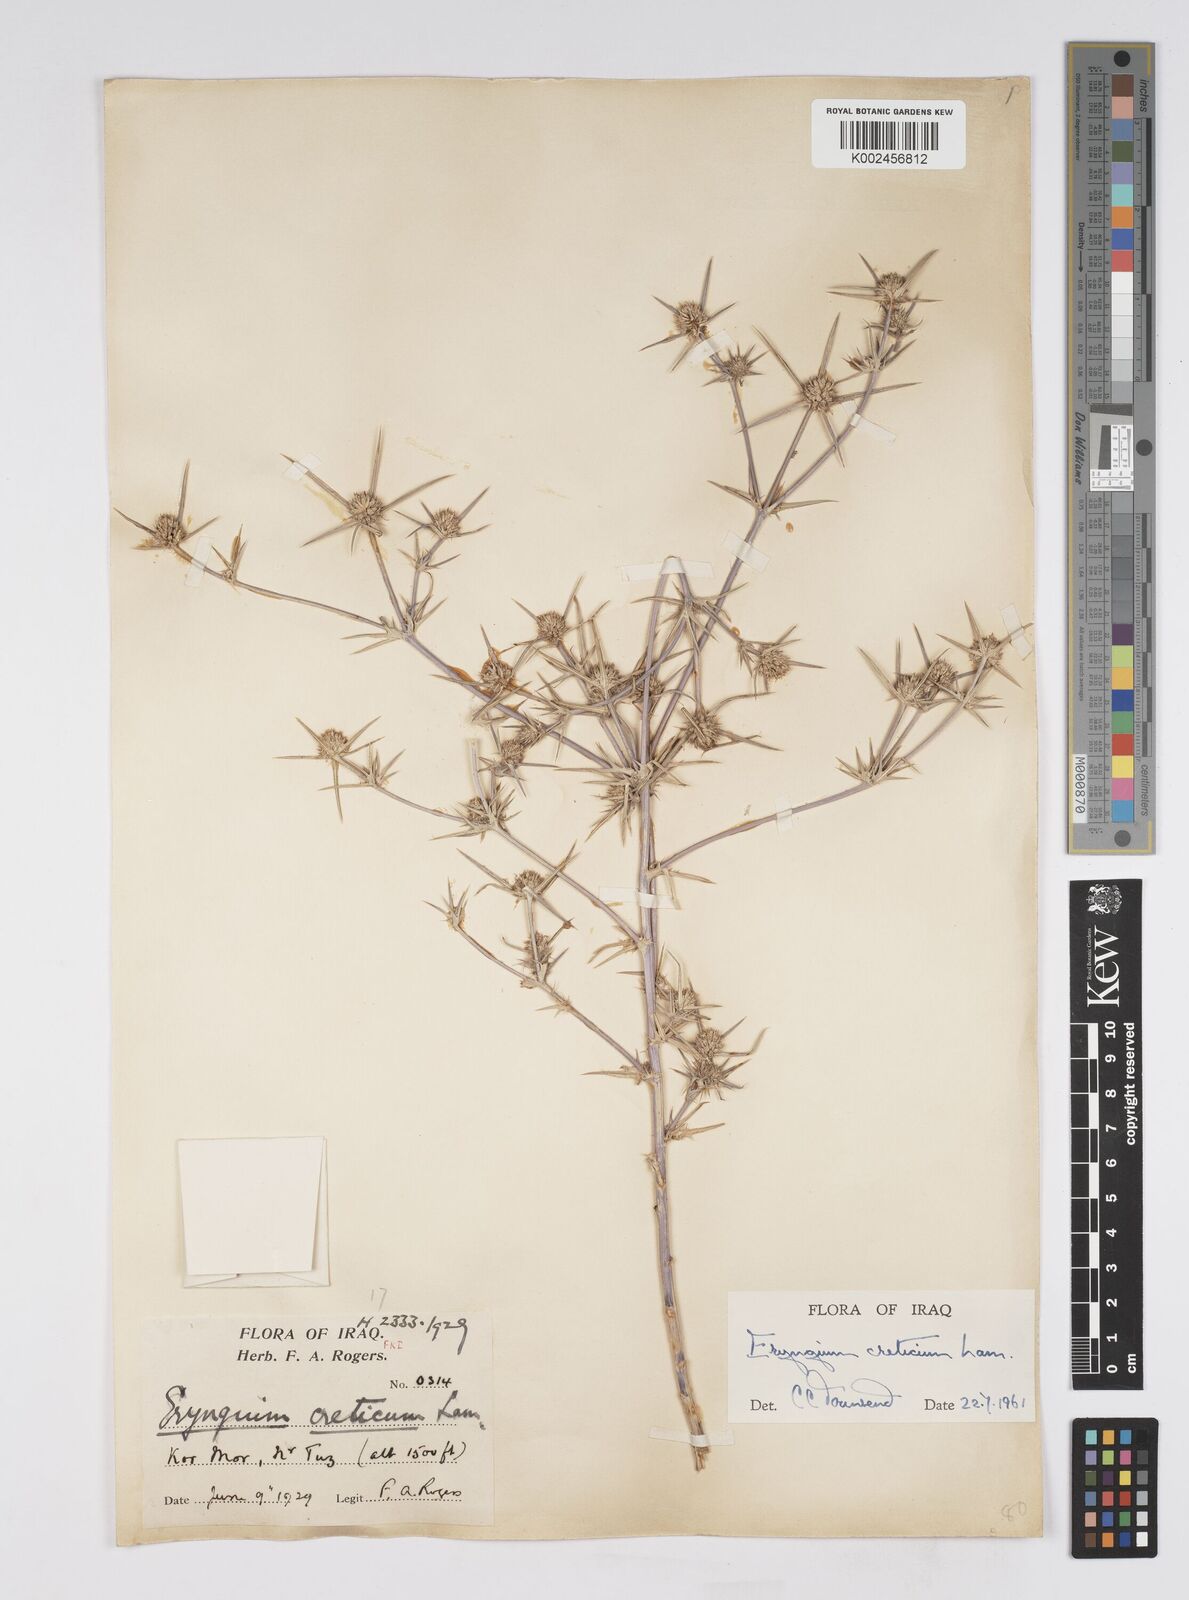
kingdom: Plantae
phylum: Tracheophyta
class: Magnoliopsida
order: Apiales
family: Apiaceae
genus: Eryngium
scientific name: Eryngium creticum
